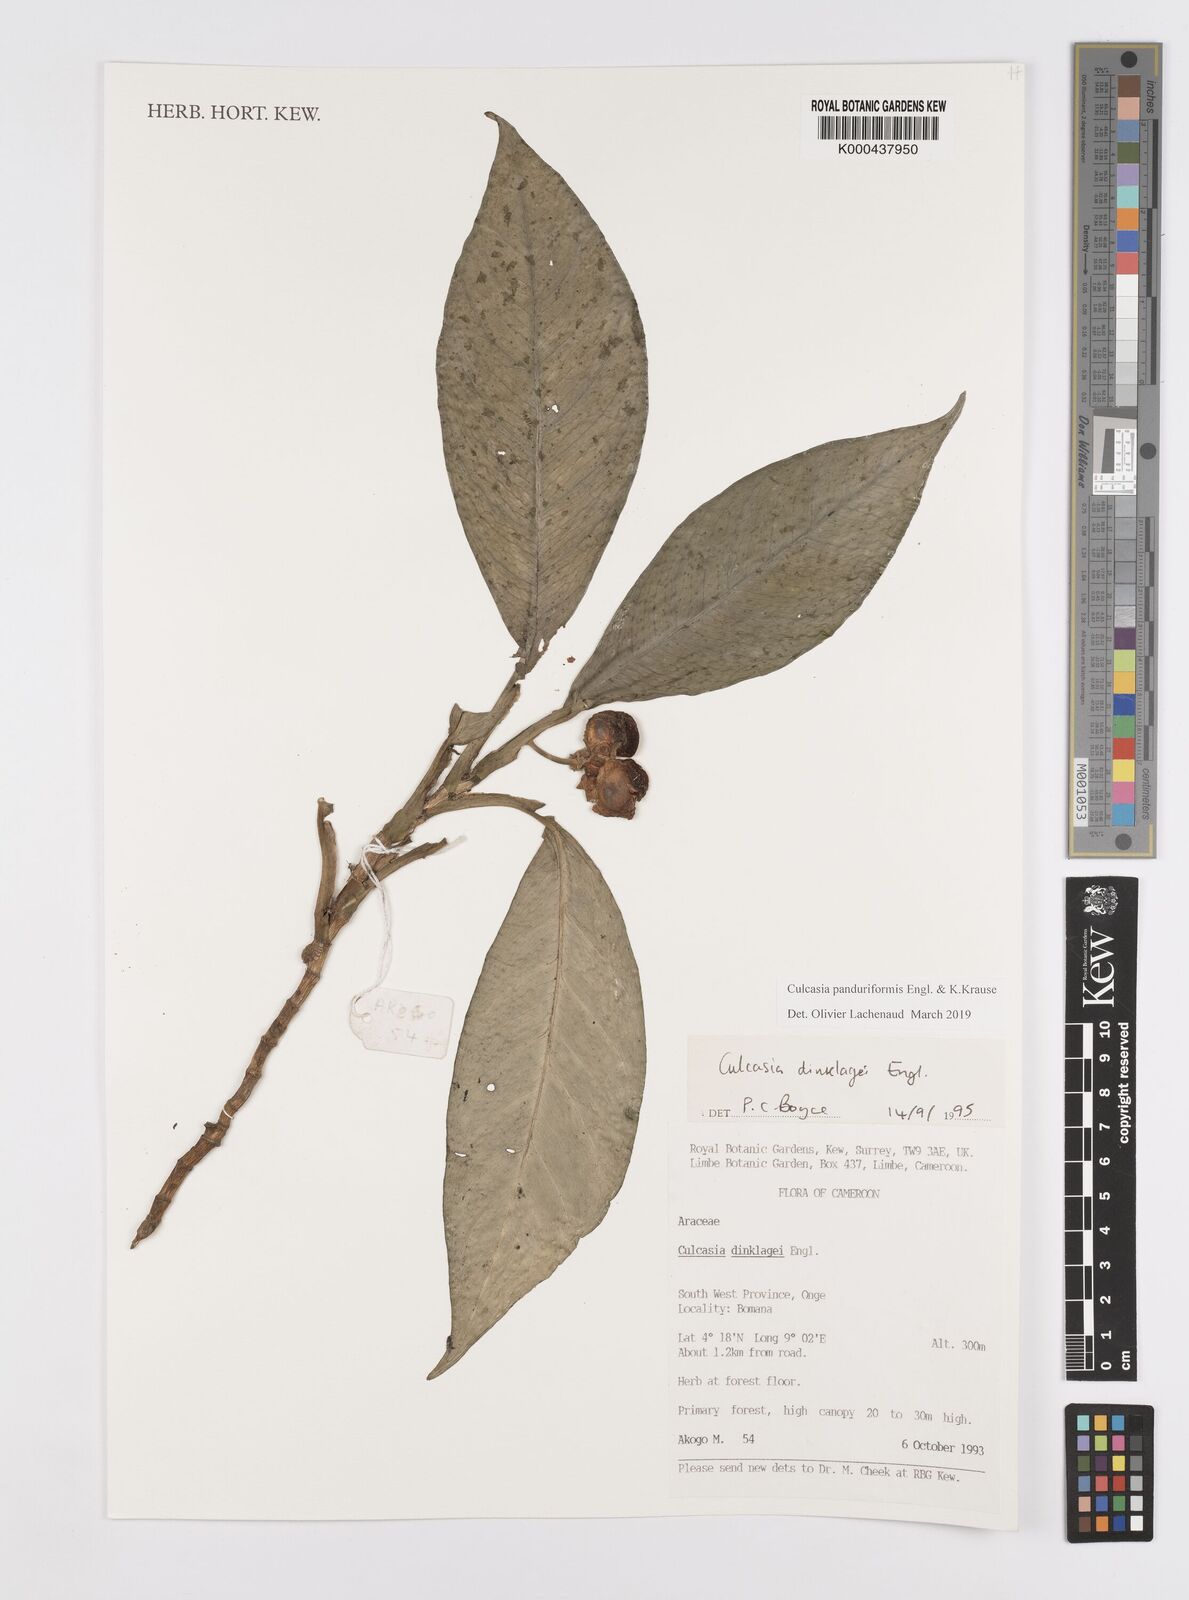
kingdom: Plantae
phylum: Tracheophyta
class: Liliopsida
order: Alismatales
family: Araceae
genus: Culcasia
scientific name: Culcasia panduriformis
